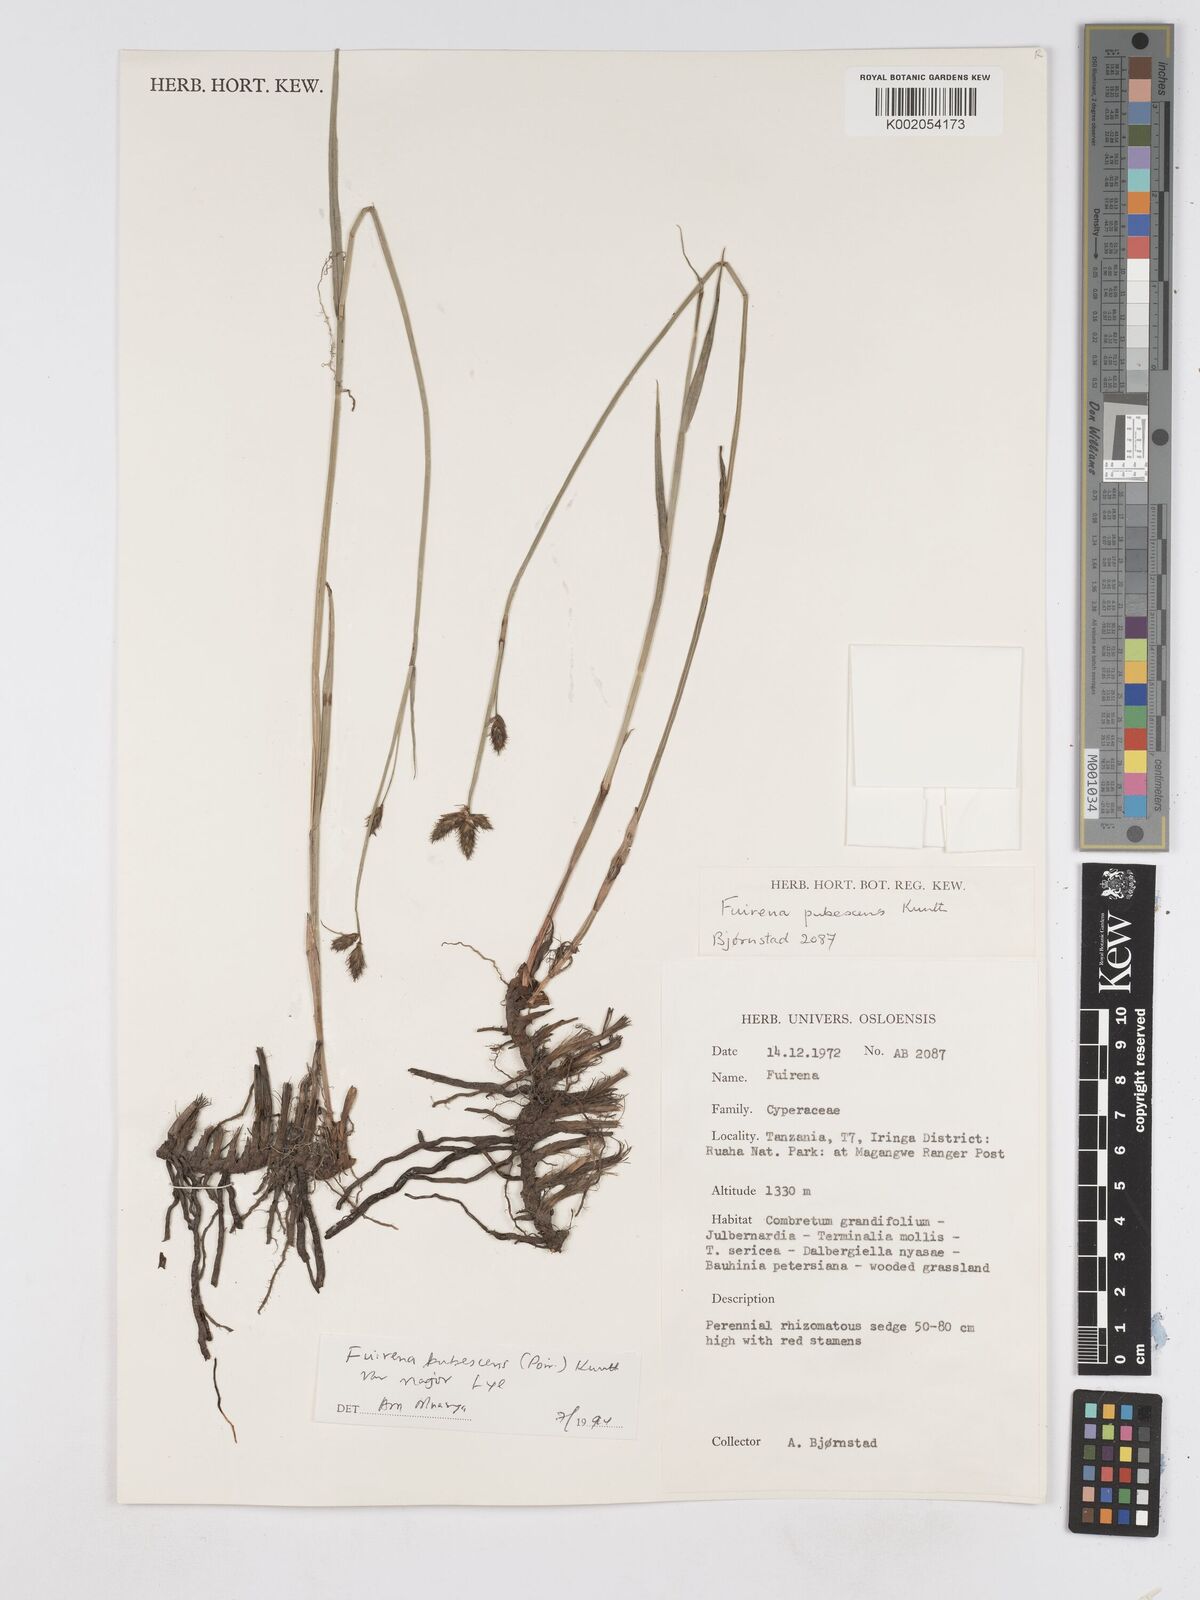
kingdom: Plantae
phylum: Tracheophyta
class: Liliopsida
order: Poales
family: Cyperaceae
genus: Fuirena
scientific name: Fuirena pachyrrhiza
